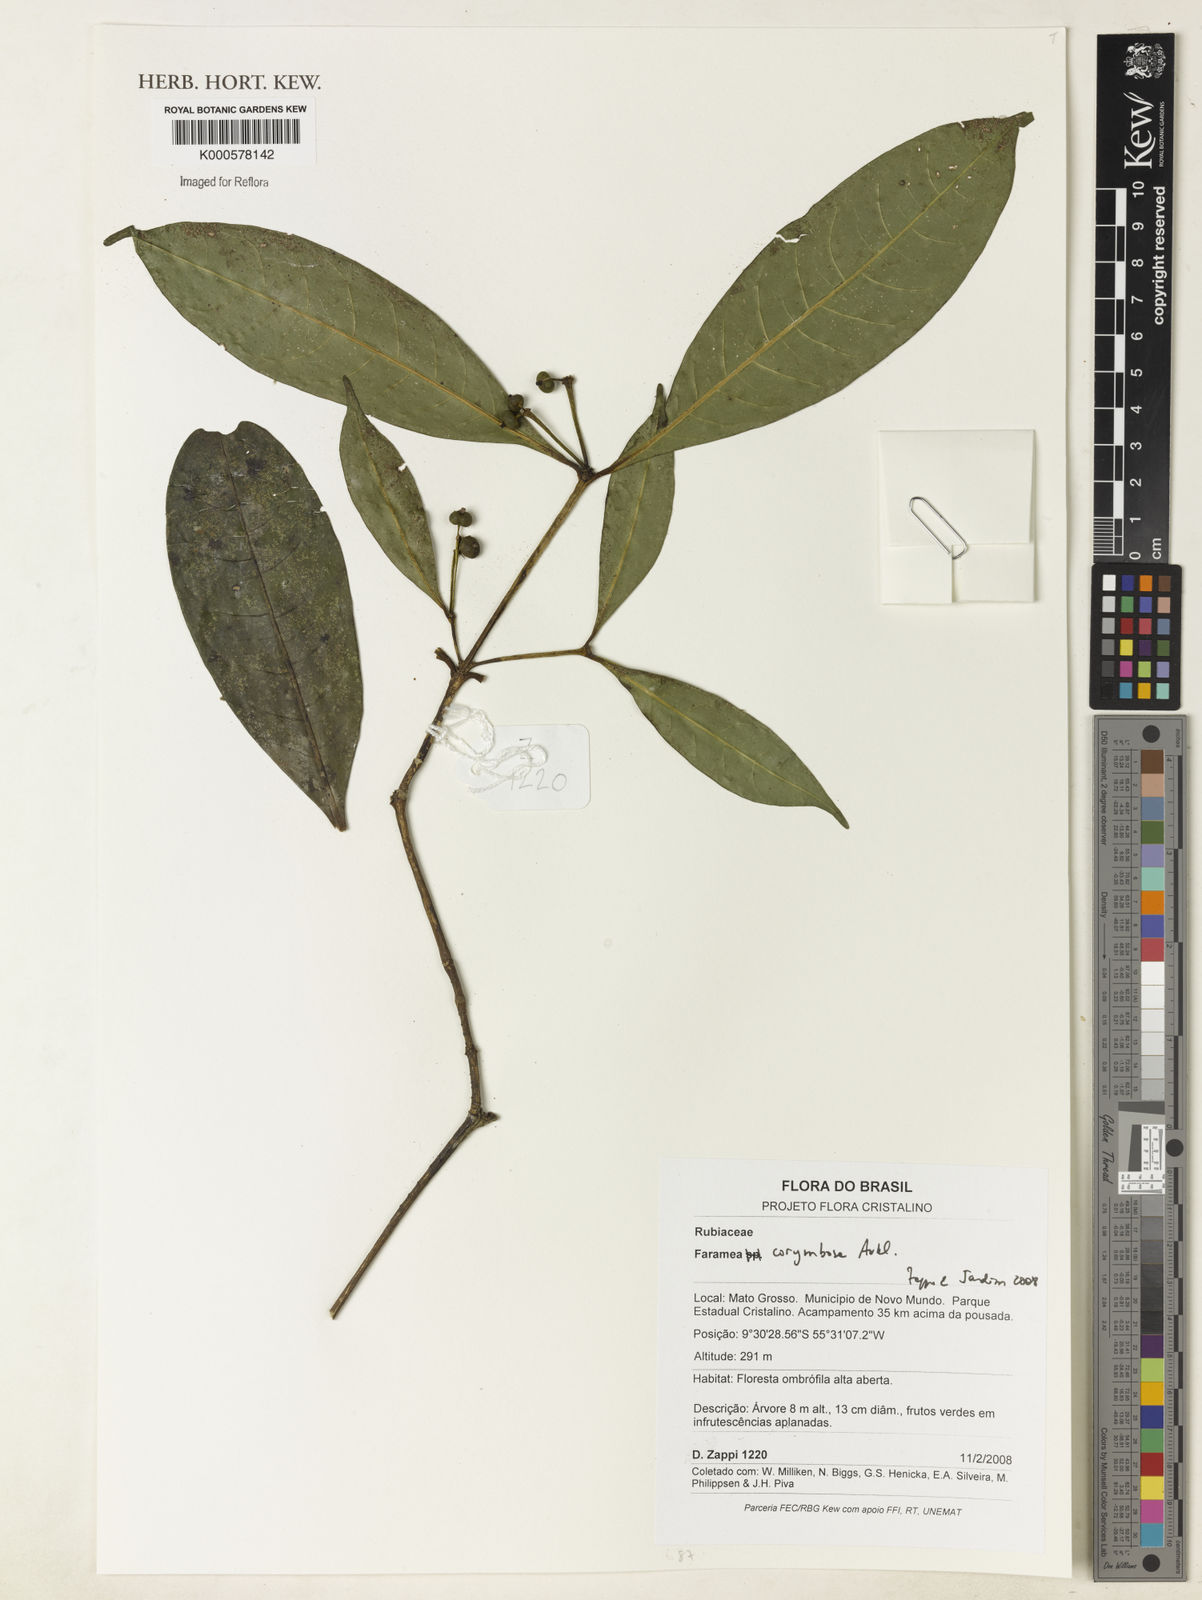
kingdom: Plantae
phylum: Tracheophyta
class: Magnoliopsida
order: Gentianales
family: Rubiaceae
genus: Faramea
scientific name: Faramea corymbosa
